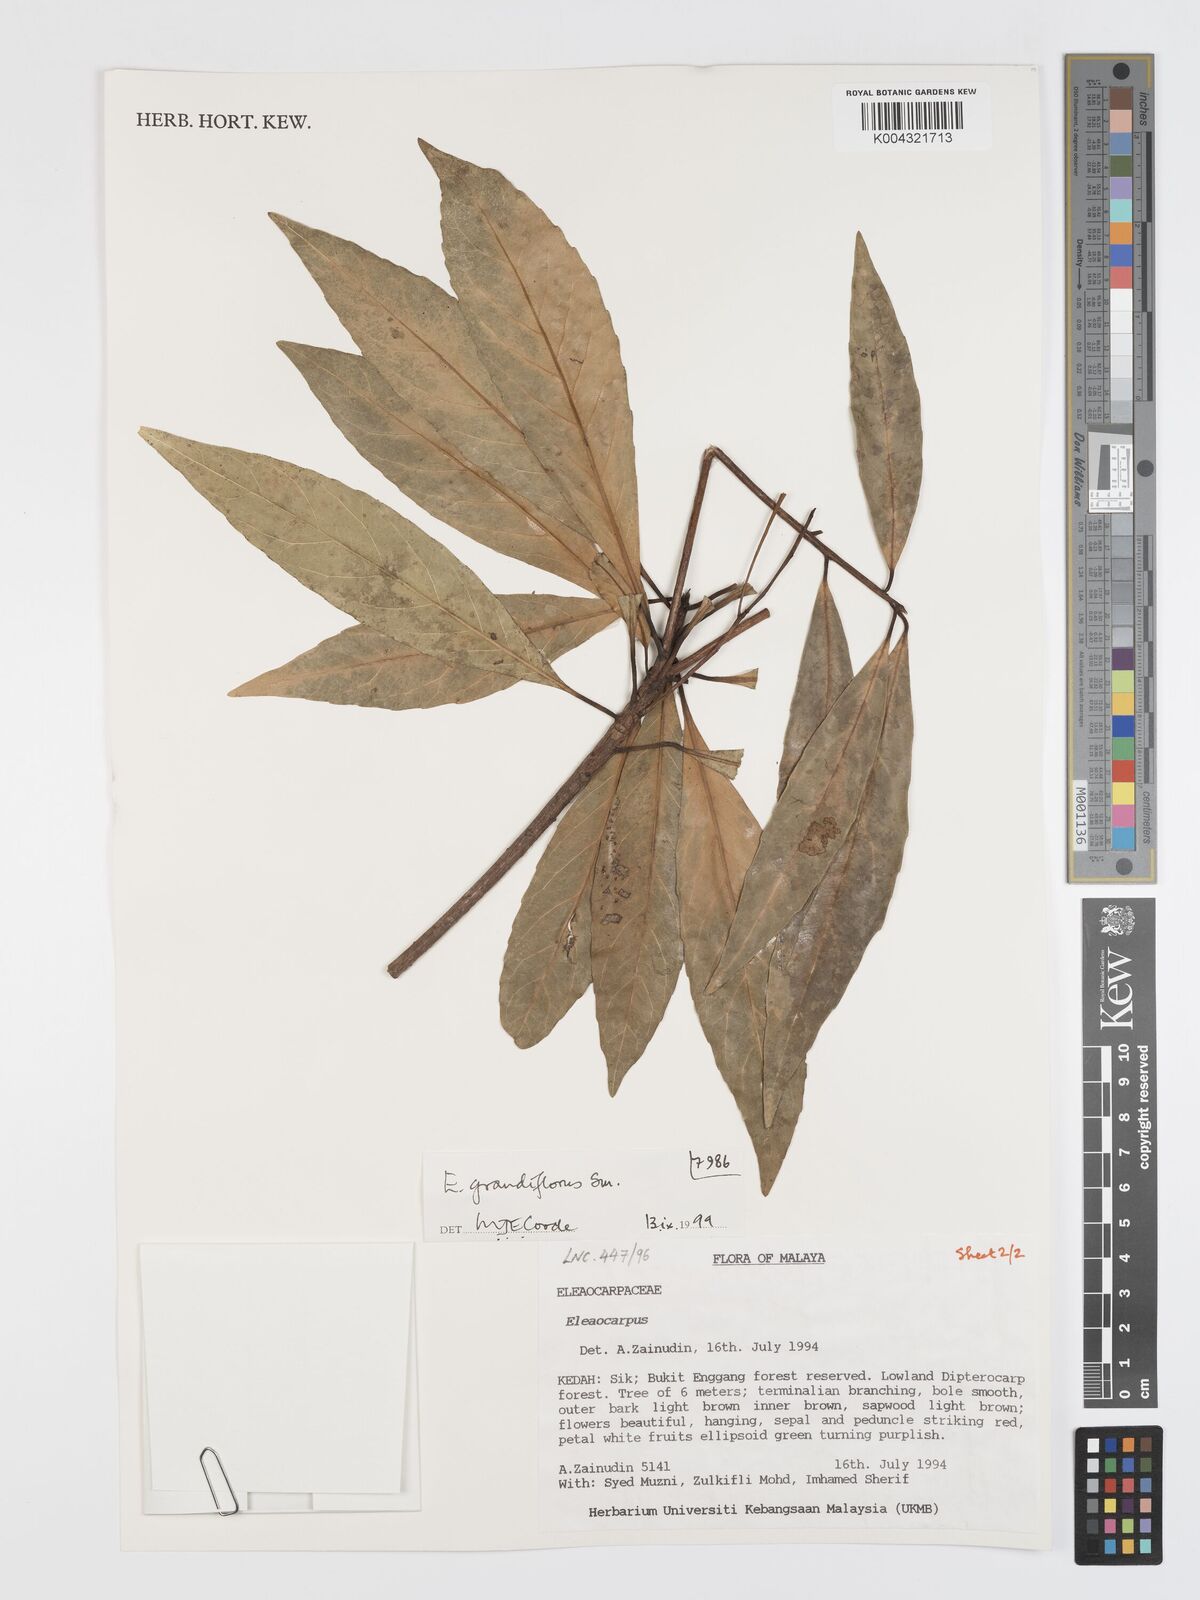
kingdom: Plantae
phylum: Tracheophyta
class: Magnoliopsida
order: Oxalidales
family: Elaeocarpaceae
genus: Elaeocarpus
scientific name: Elaeocarpus grandiflorus
